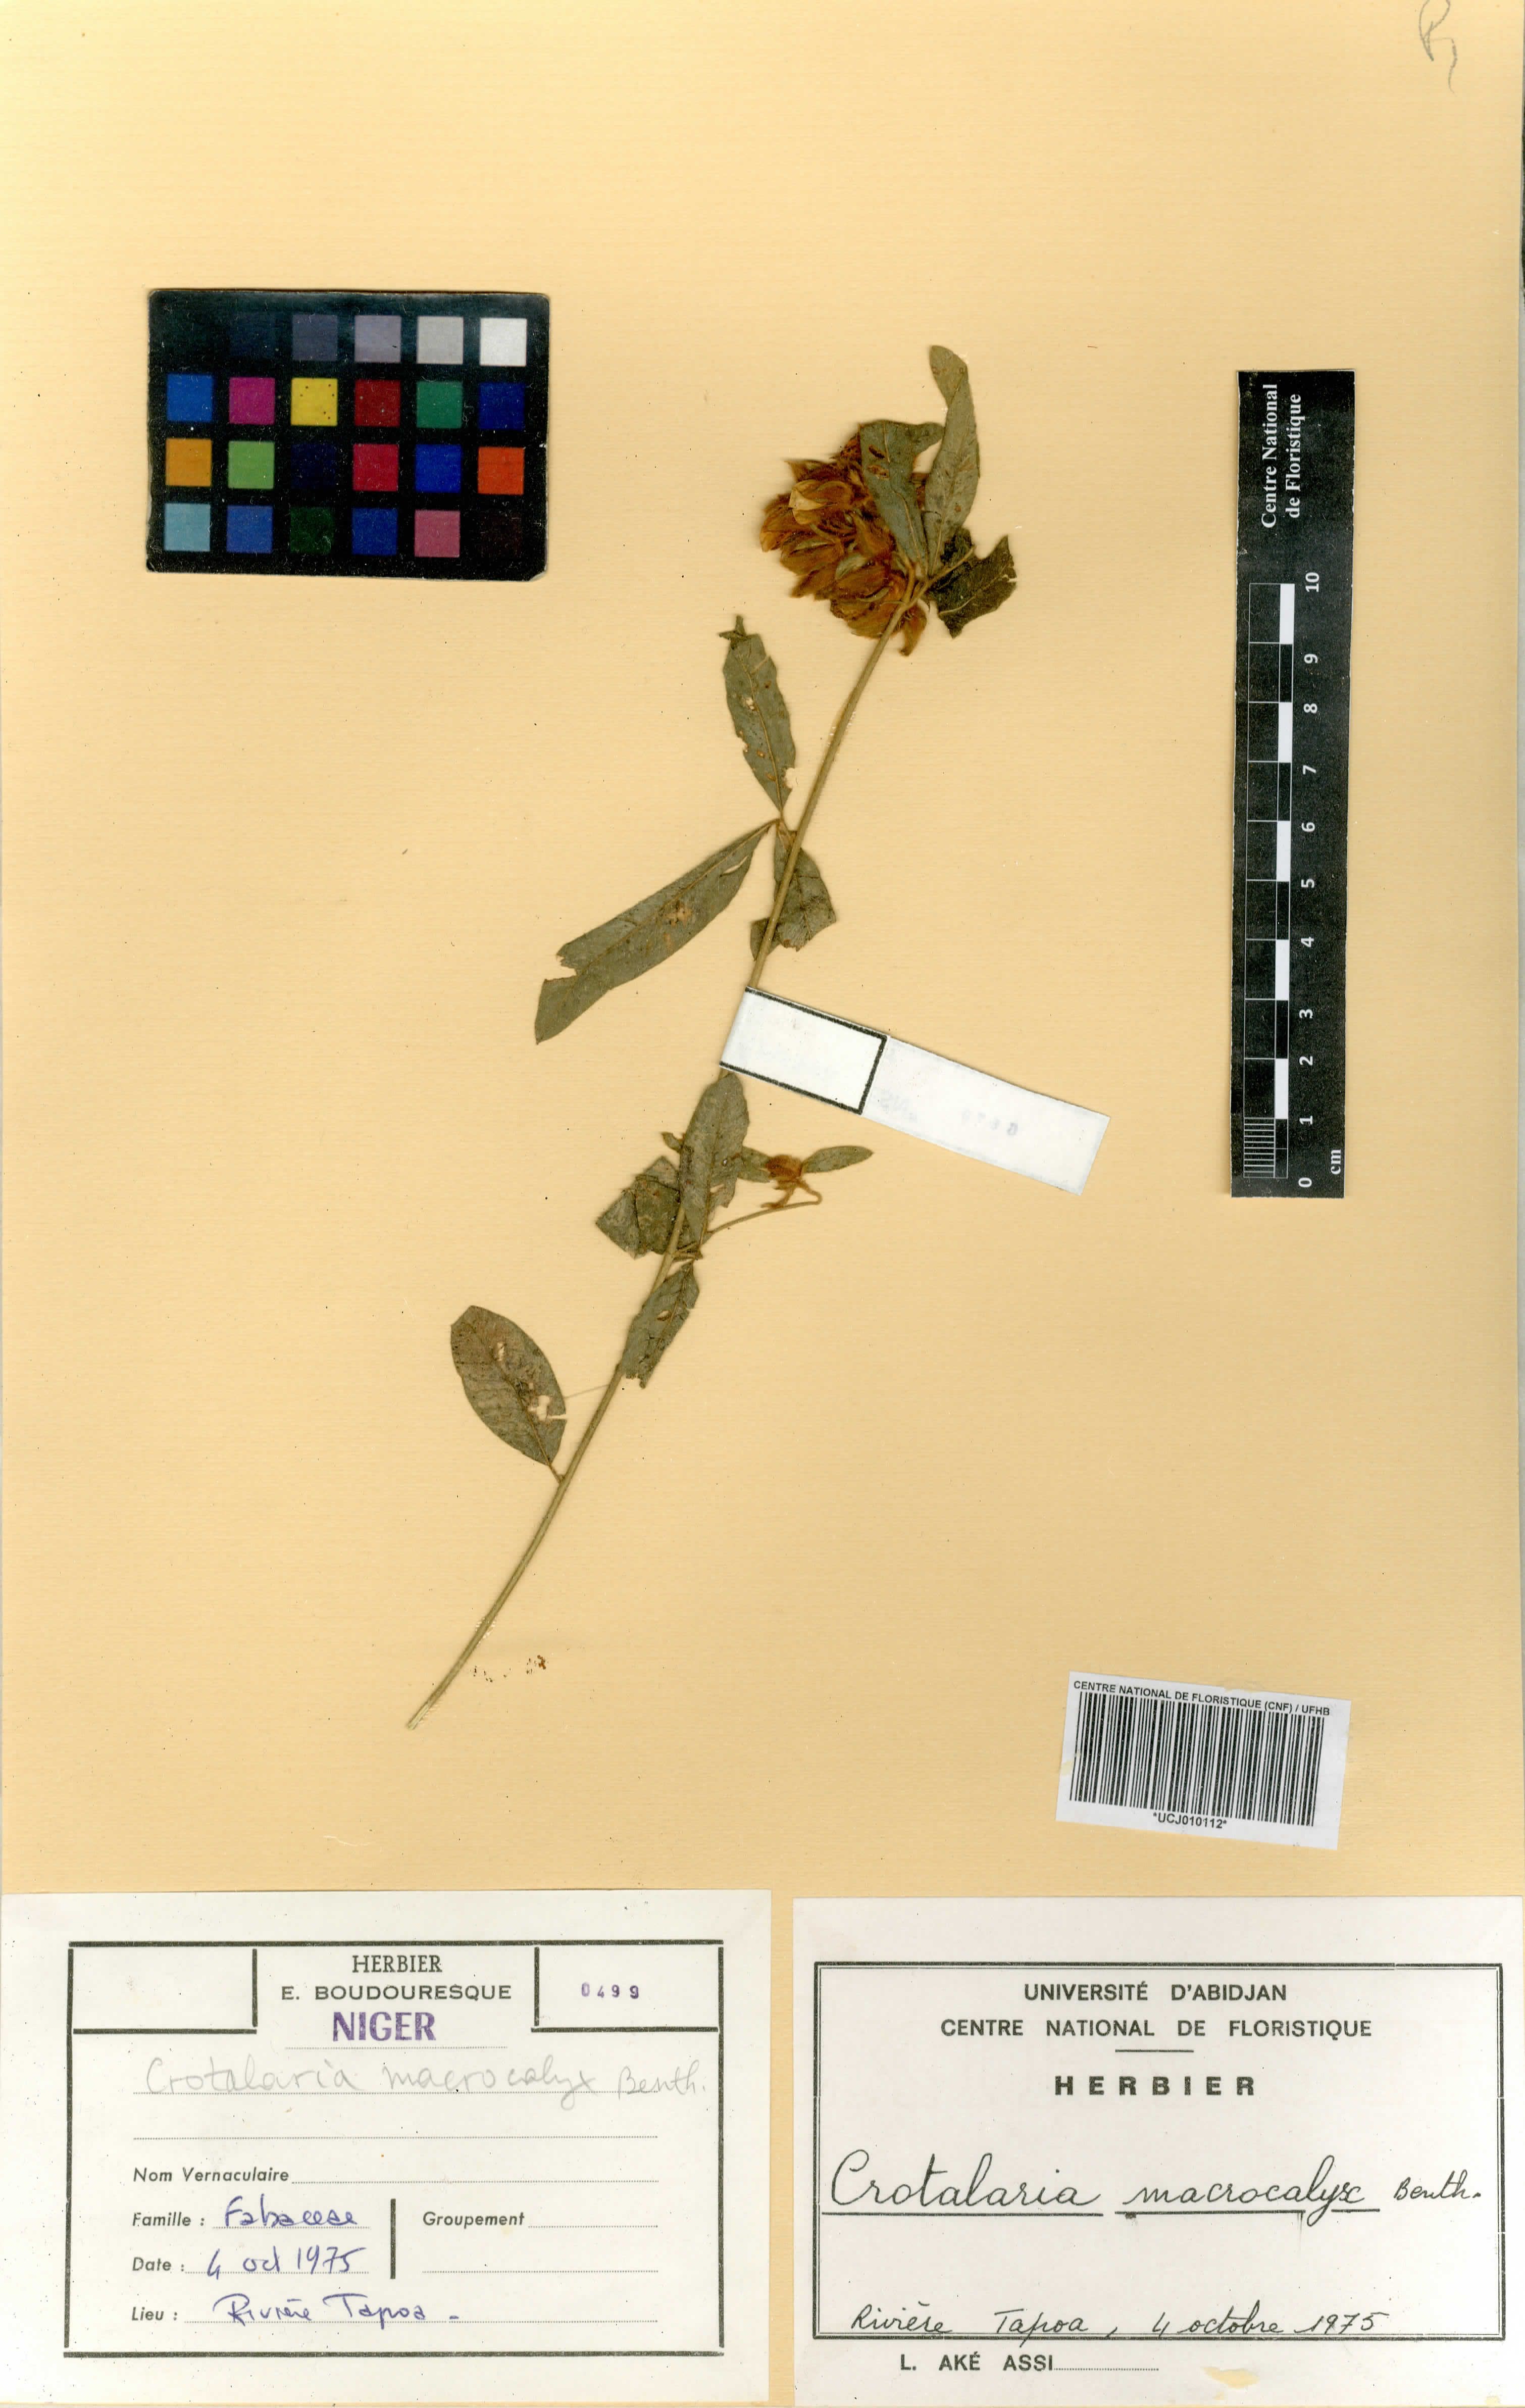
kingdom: Plantae
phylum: Tracheophyta
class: Magnoliopsida
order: Fabales
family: Fabaceae
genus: Crotalaria
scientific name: Crotalaria macrocalyx
